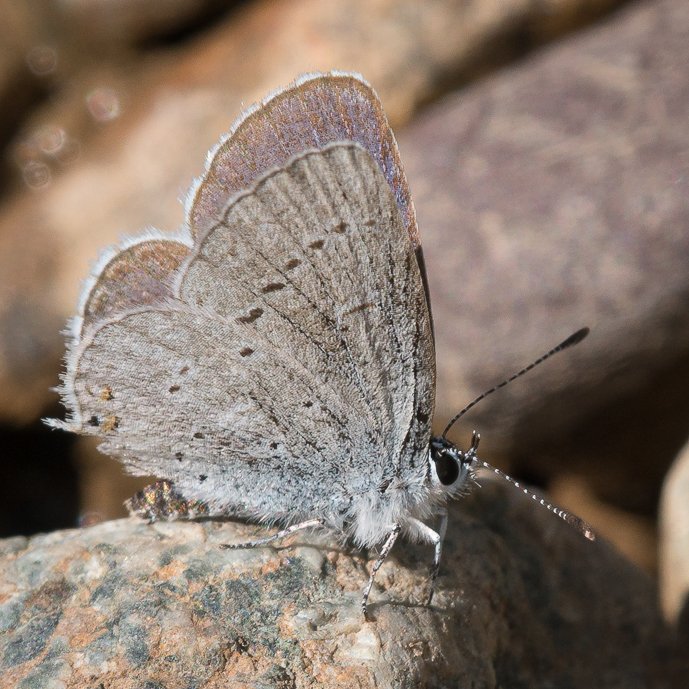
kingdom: Animalia
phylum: Arthropoda
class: Insecta
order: Lepidoptera
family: Lycaenidae
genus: Elkalyce
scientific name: Elkalyce amyntula
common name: Western Tailed-Blue
